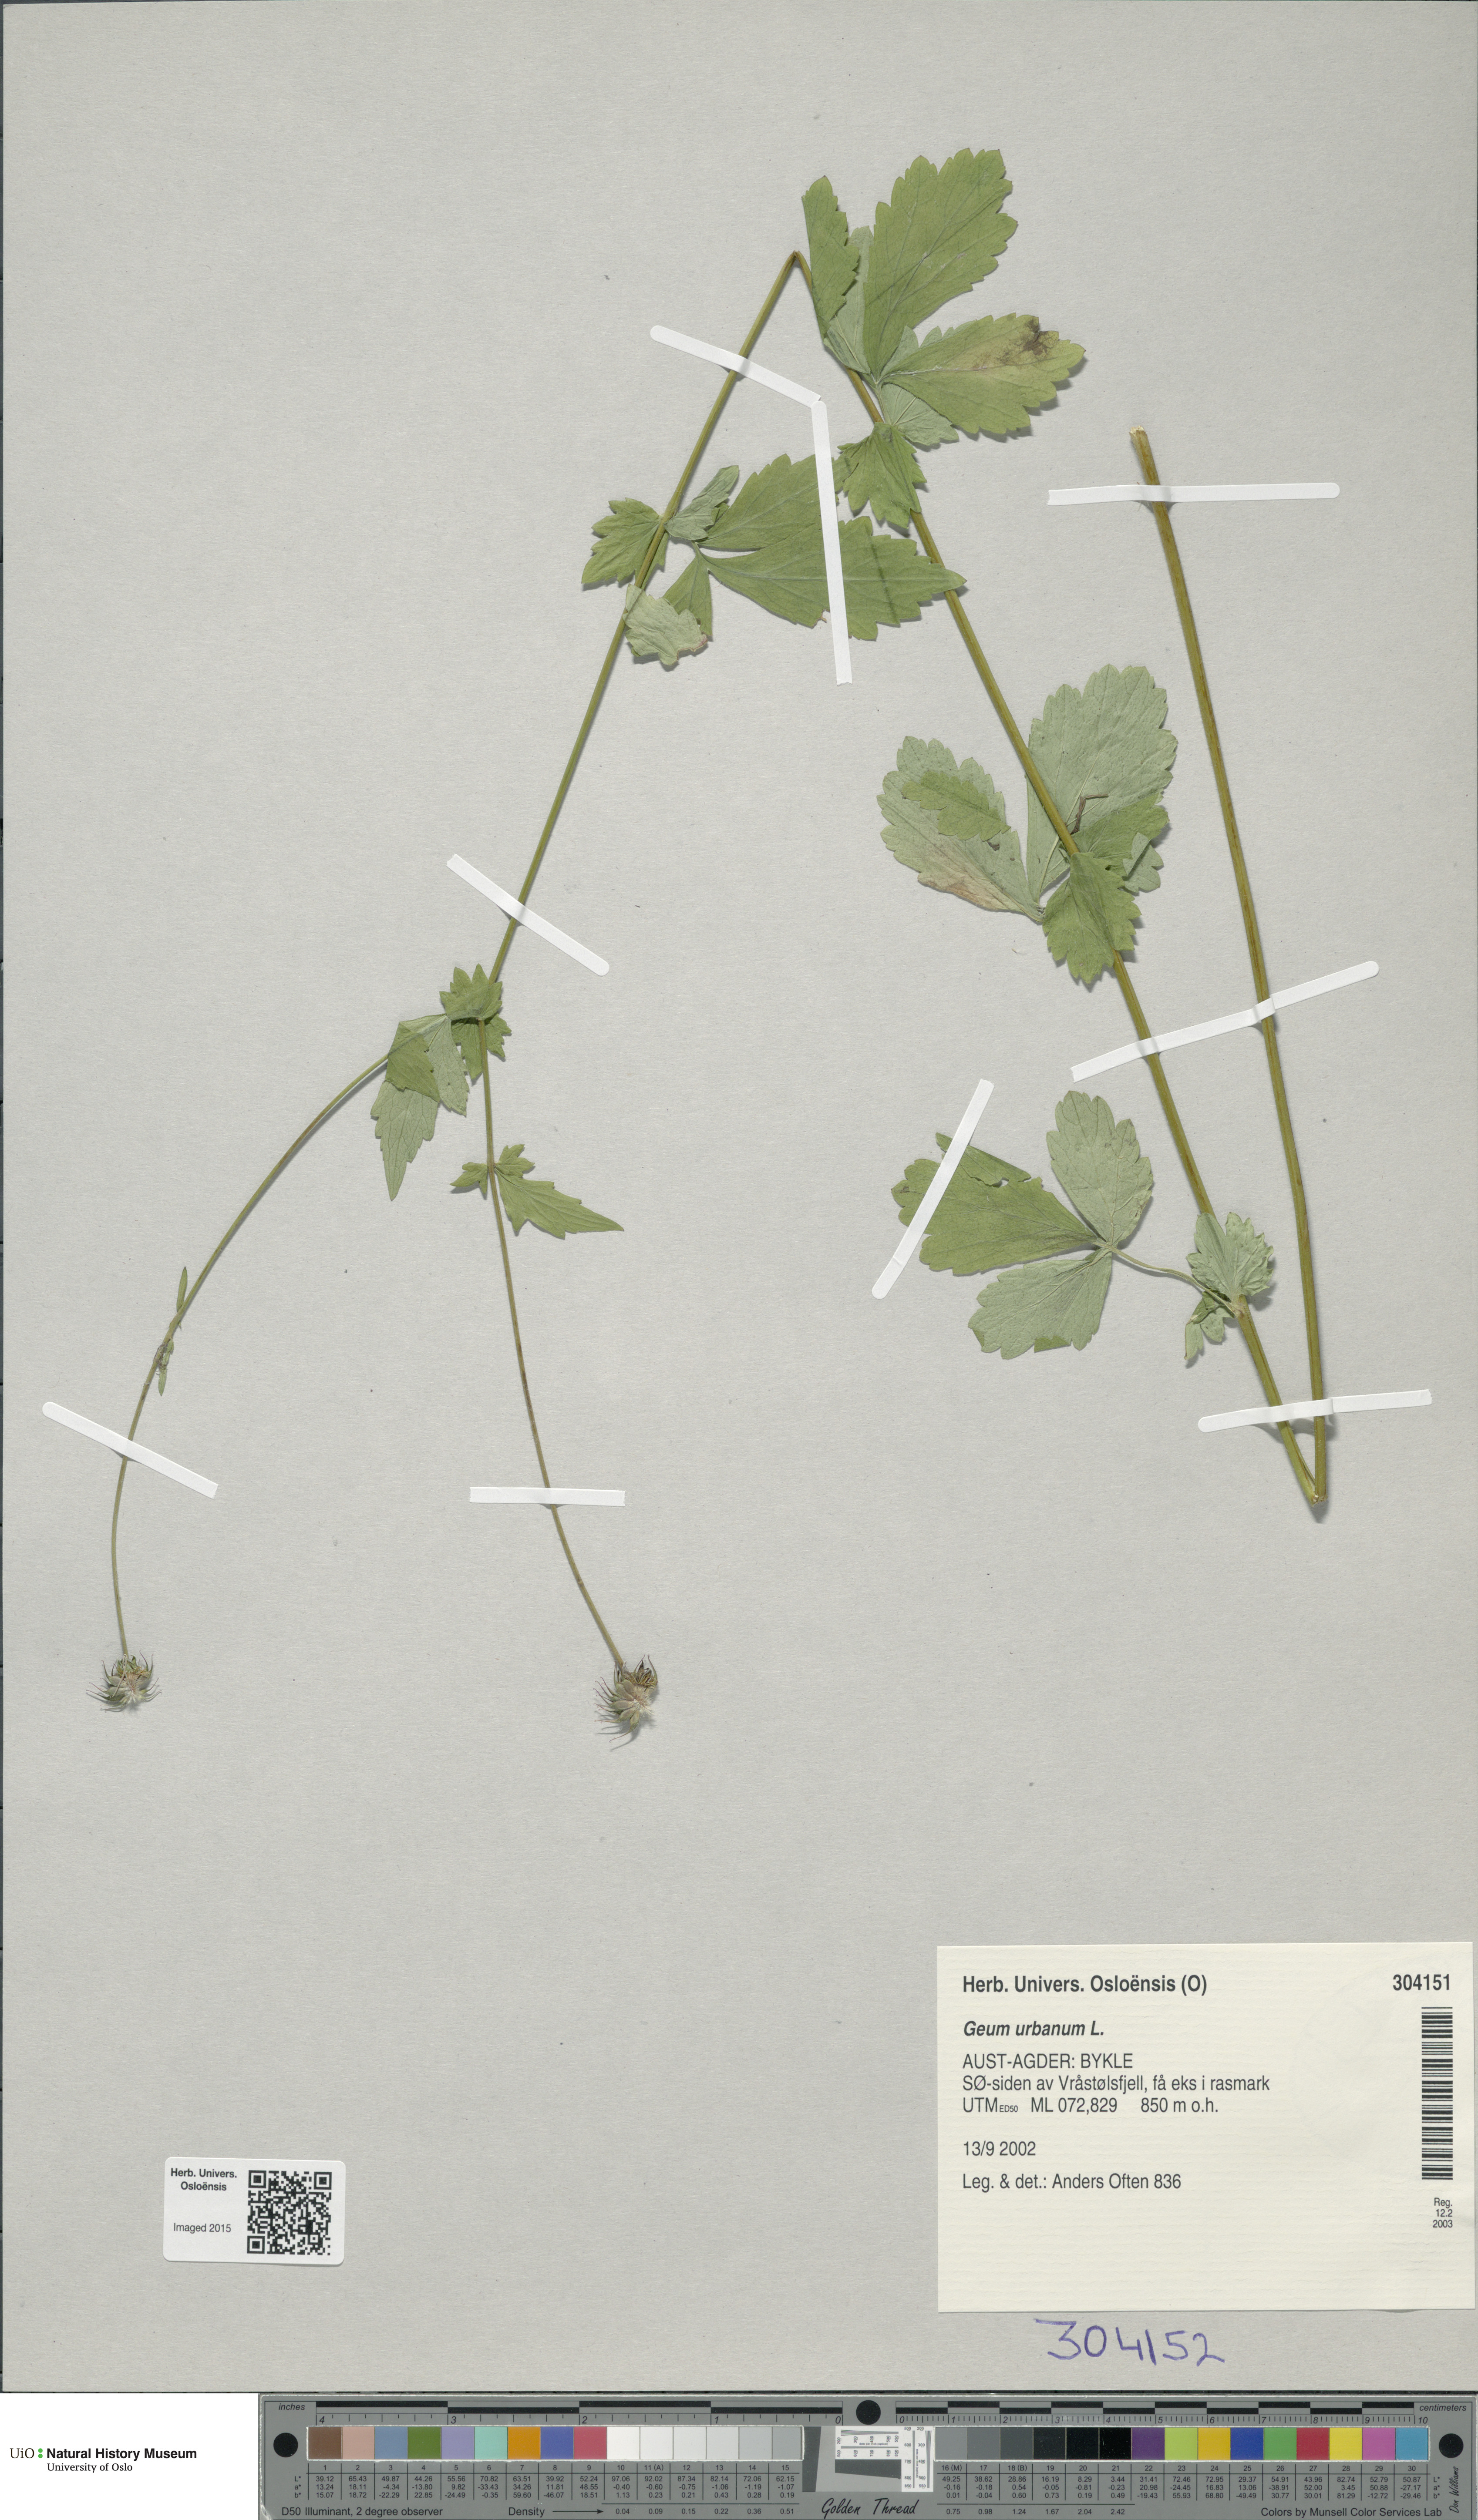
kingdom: Plantae
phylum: Tracheophyta
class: Magnoliopsida
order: Rosales
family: Rosaceae
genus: Geum
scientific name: Geum urbanum
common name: Wood avens
